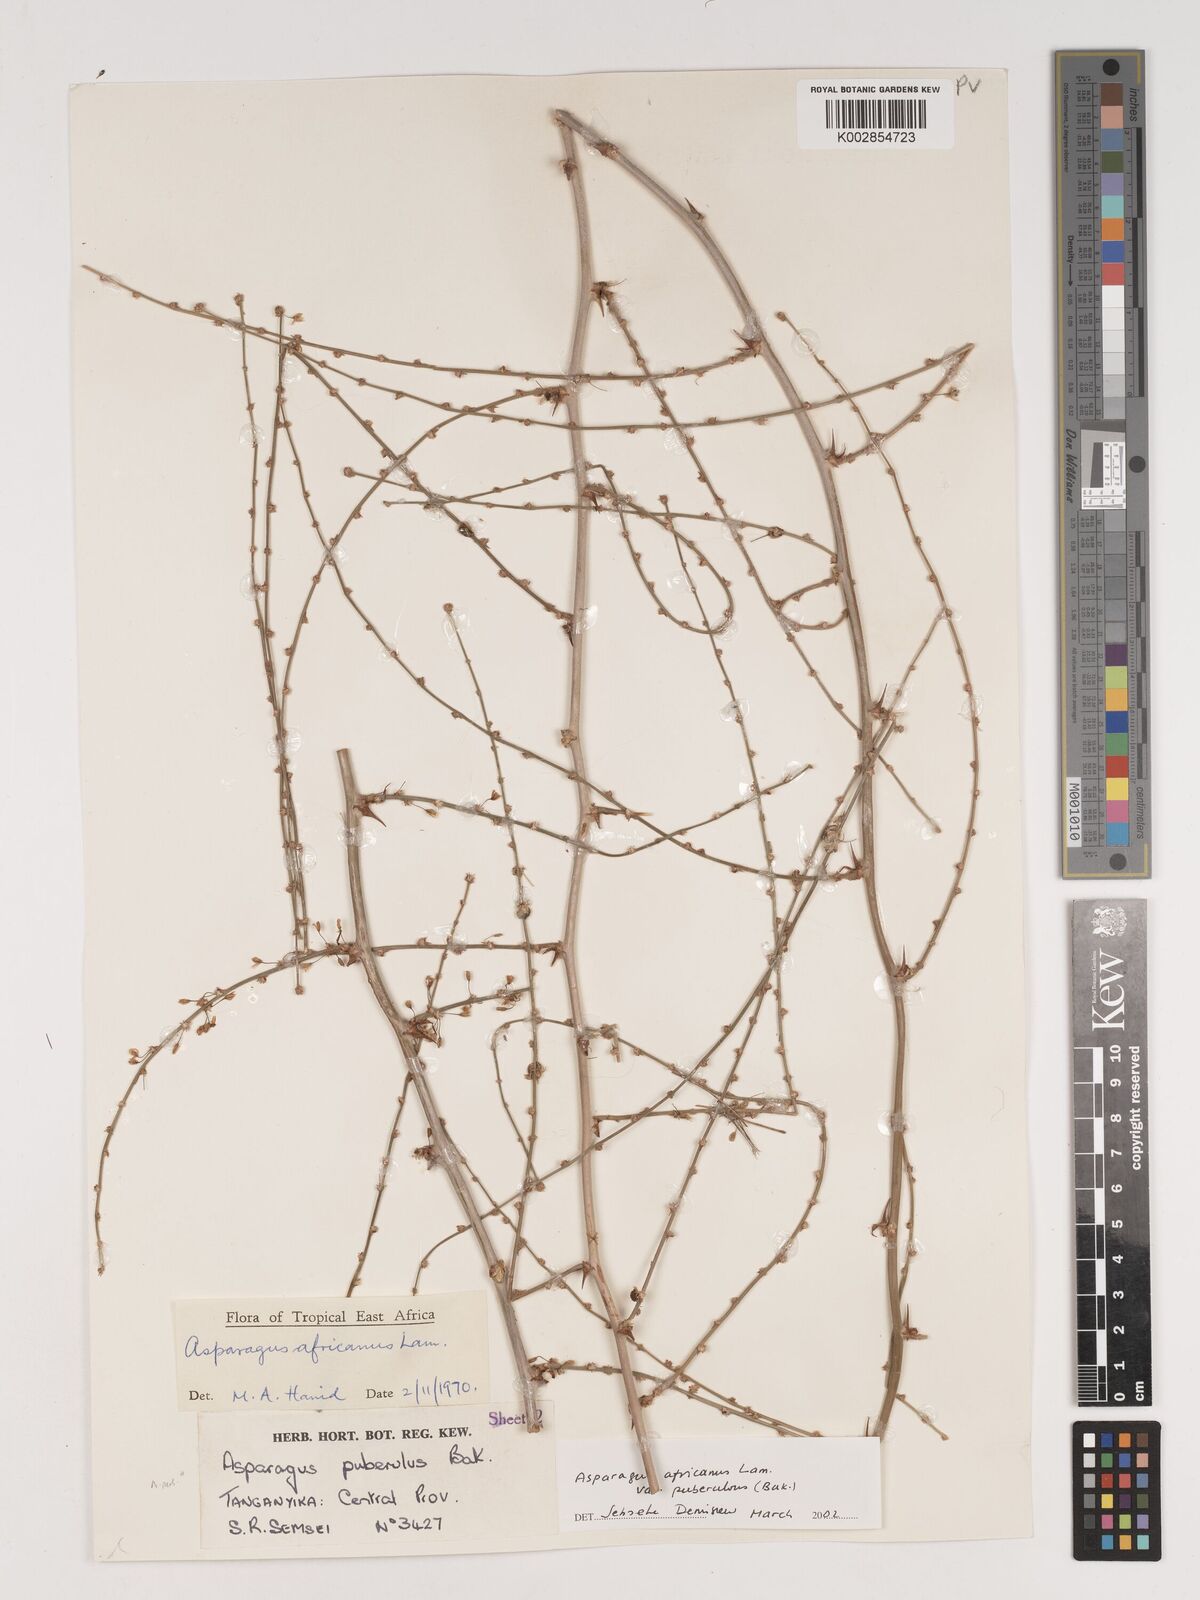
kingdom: Plantae
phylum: Tracheophyta
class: Liliopsida
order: Asparagales
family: Asparagaceae
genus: Asparagus
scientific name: Asparagus africanus
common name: Asparagus-fern
